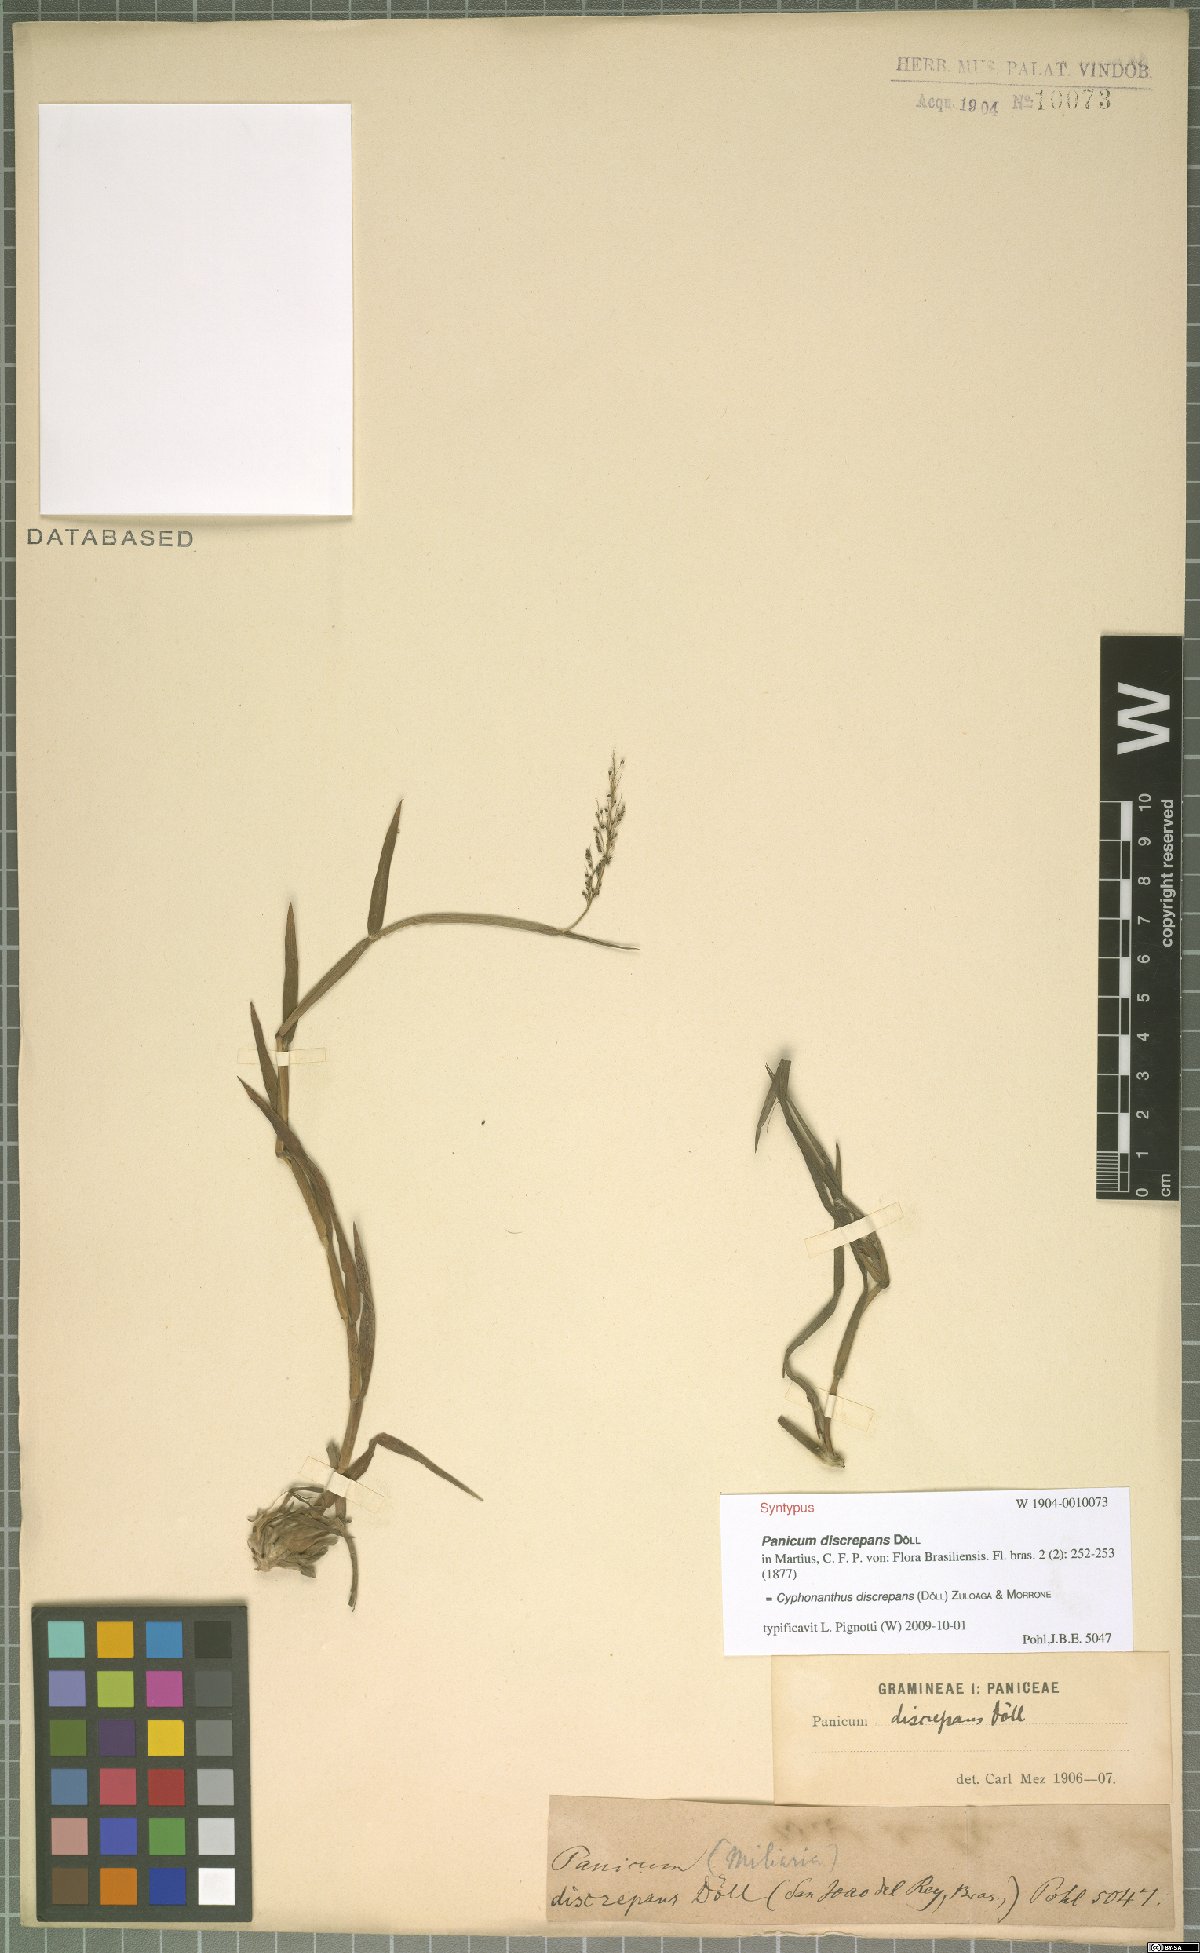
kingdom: Plantae
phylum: Tracheophyta
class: Liliopsida
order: Poales
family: Poaceae
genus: Cyphonanthus
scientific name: Cyphonanthus discrepans
